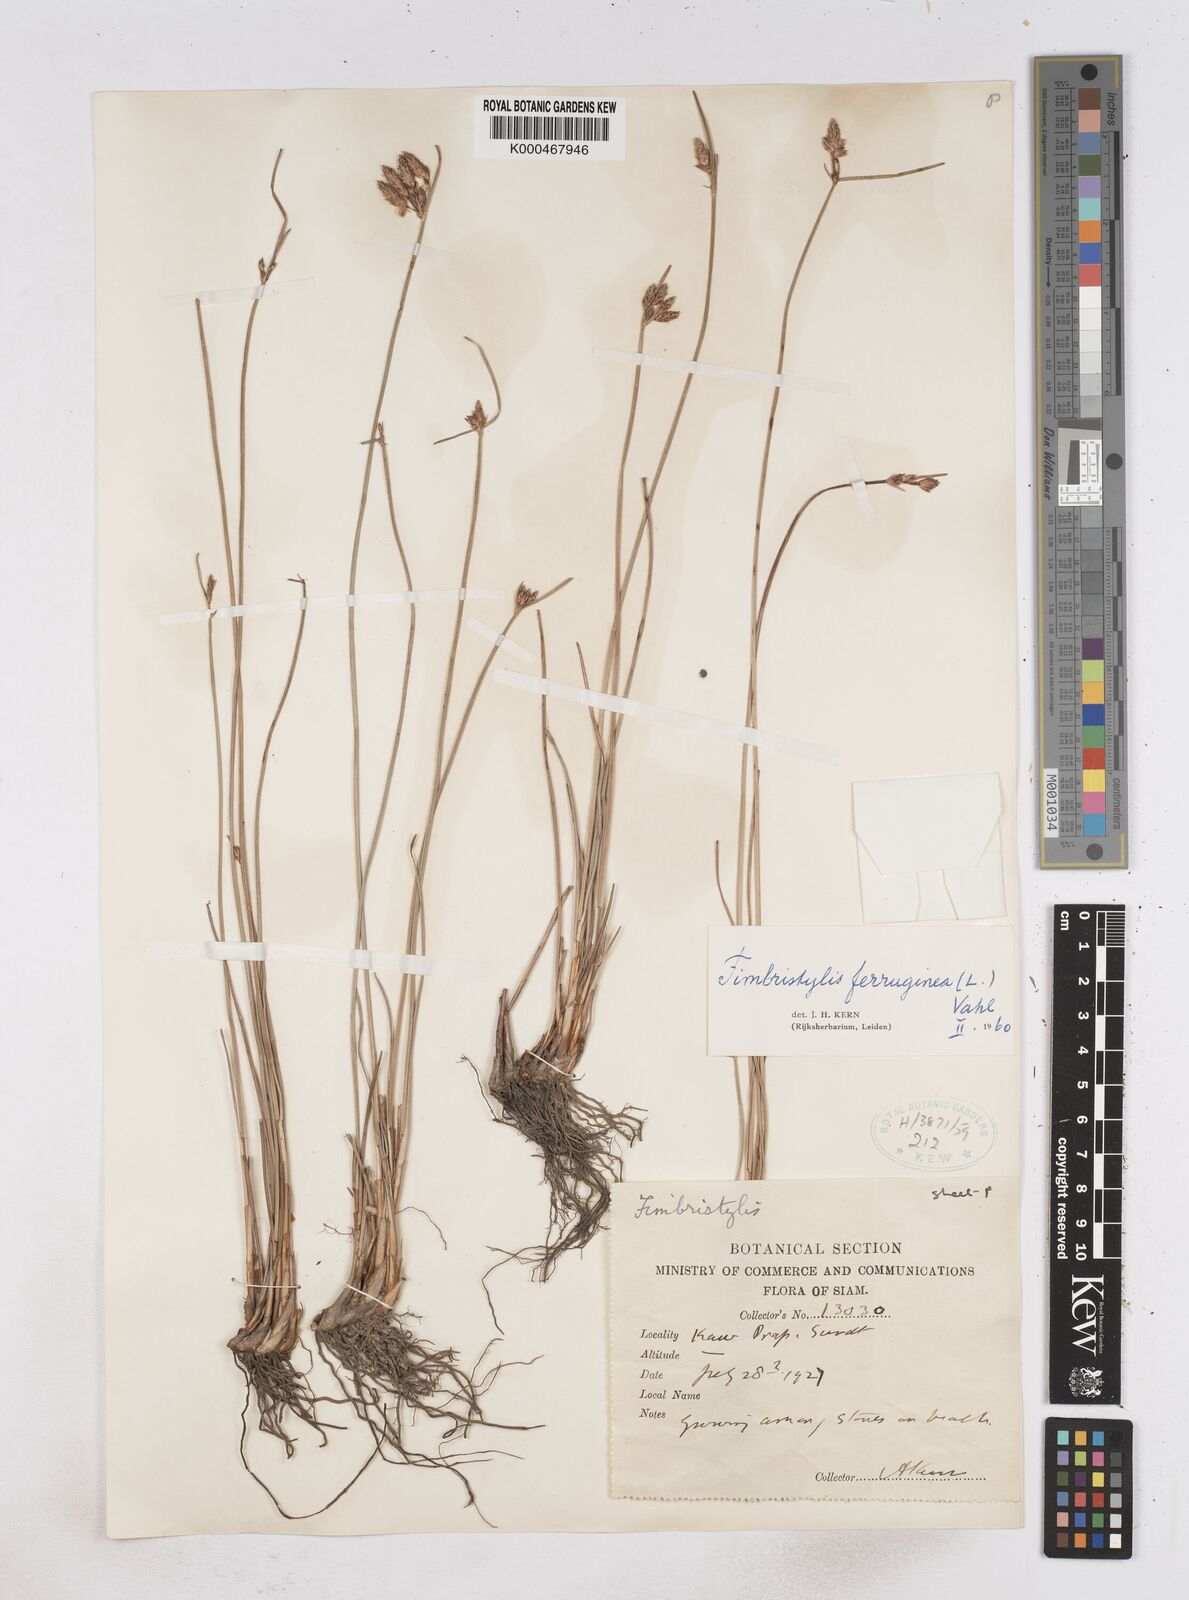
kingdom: Plantae
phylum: Tracheophyta
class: Liliopsida
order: Poales
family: Cyperaceae
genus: Fimbristylis
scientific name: Fimbristylis ferruginea
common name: West indian fimbry
